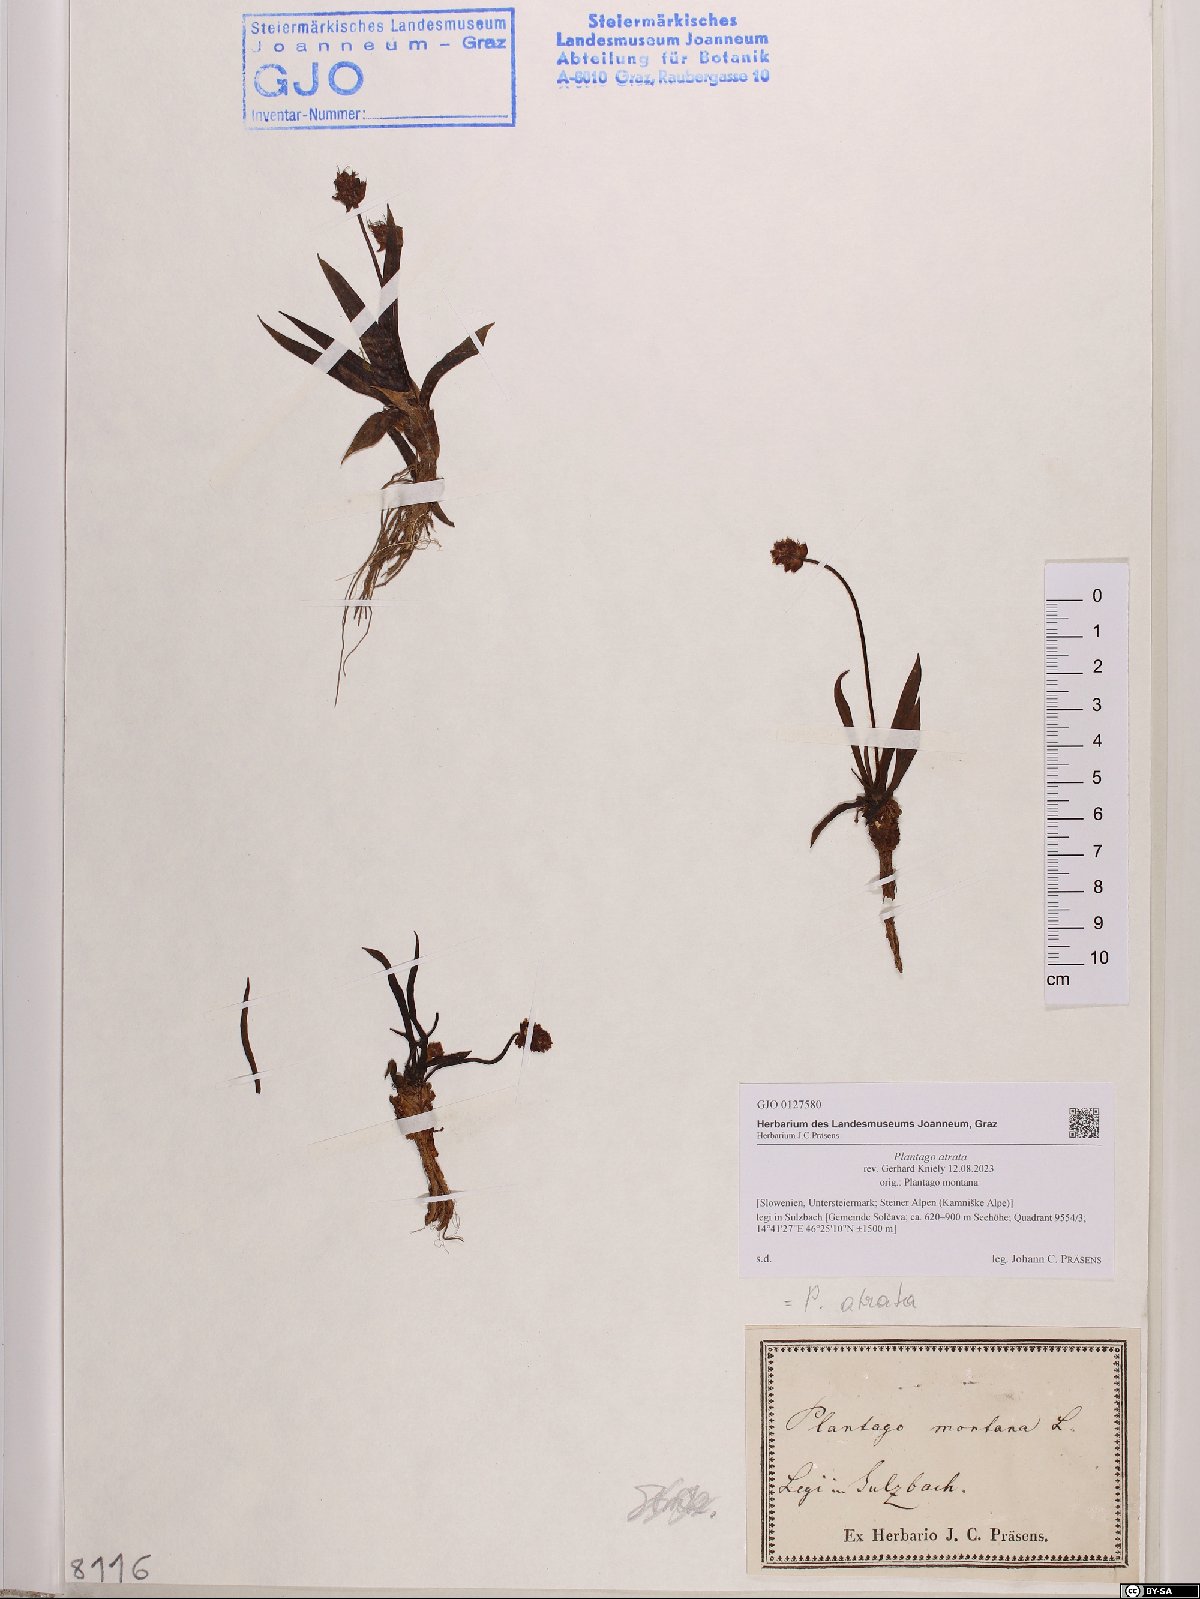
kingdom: Plantae
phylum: Tracheophyta
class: Magnoliopsida
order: Lamiales
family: Plantaginaceae
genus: Plantago
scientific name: Plantago atrata
